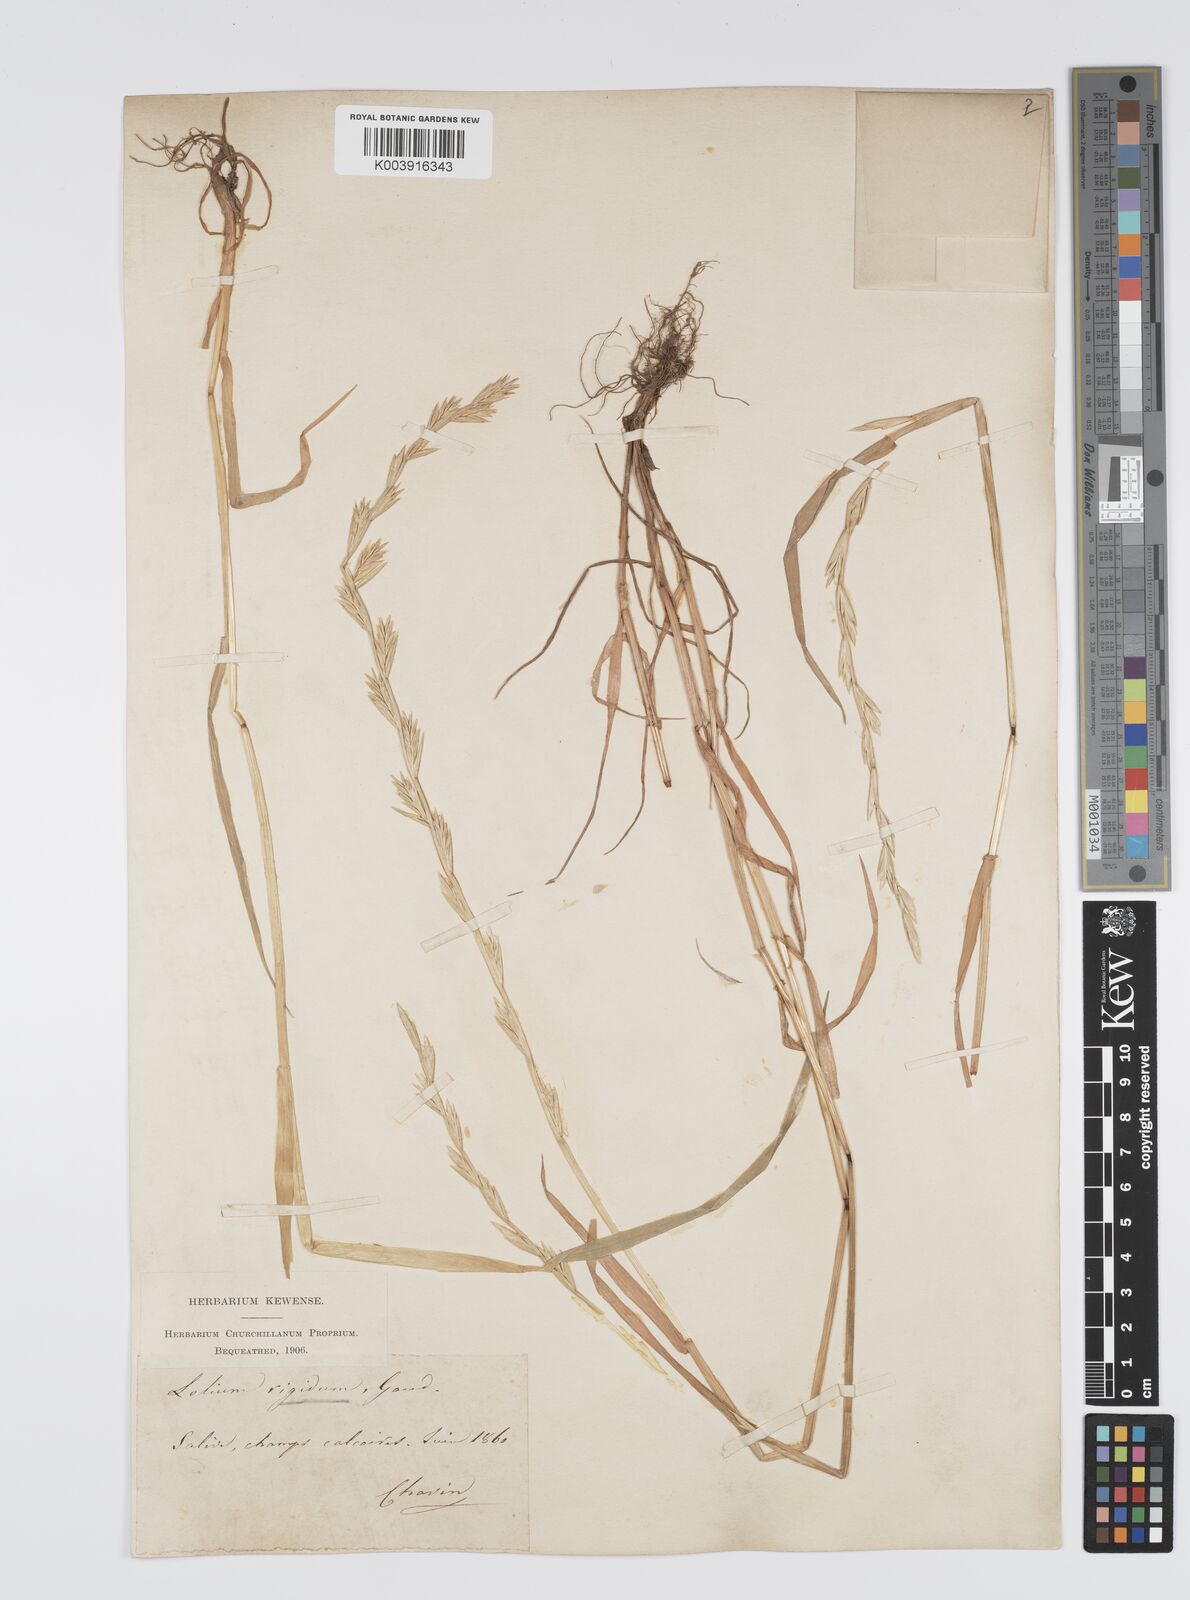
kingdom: Plantae
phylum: Tracheophyta
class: Liliopsida
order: Poales
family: Poaceae
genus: Lolium
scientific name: Lolium rigidum
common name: Wimmera ryegrass
